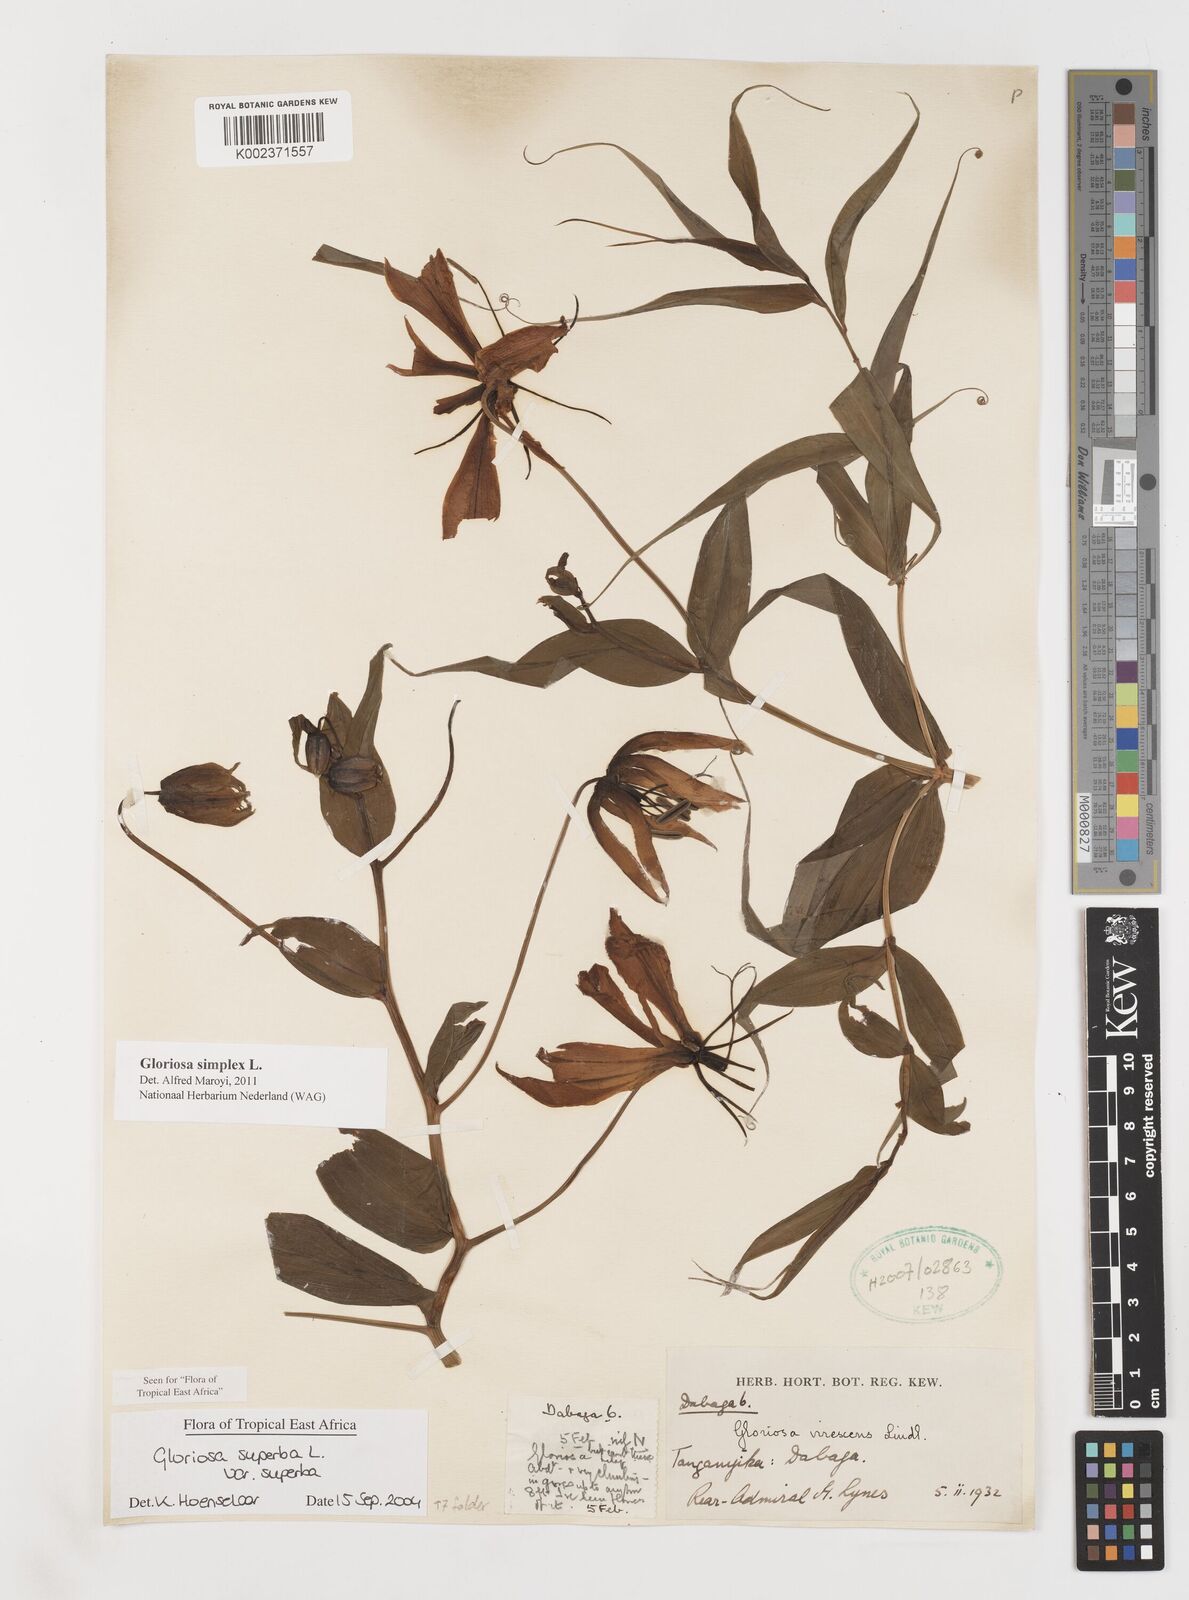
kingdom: Plantae
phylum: Tracheophyta
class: Liliopsida
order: Liliales
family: Colchicaceae
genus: Gloriosa
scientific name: Gloriosa simplex
